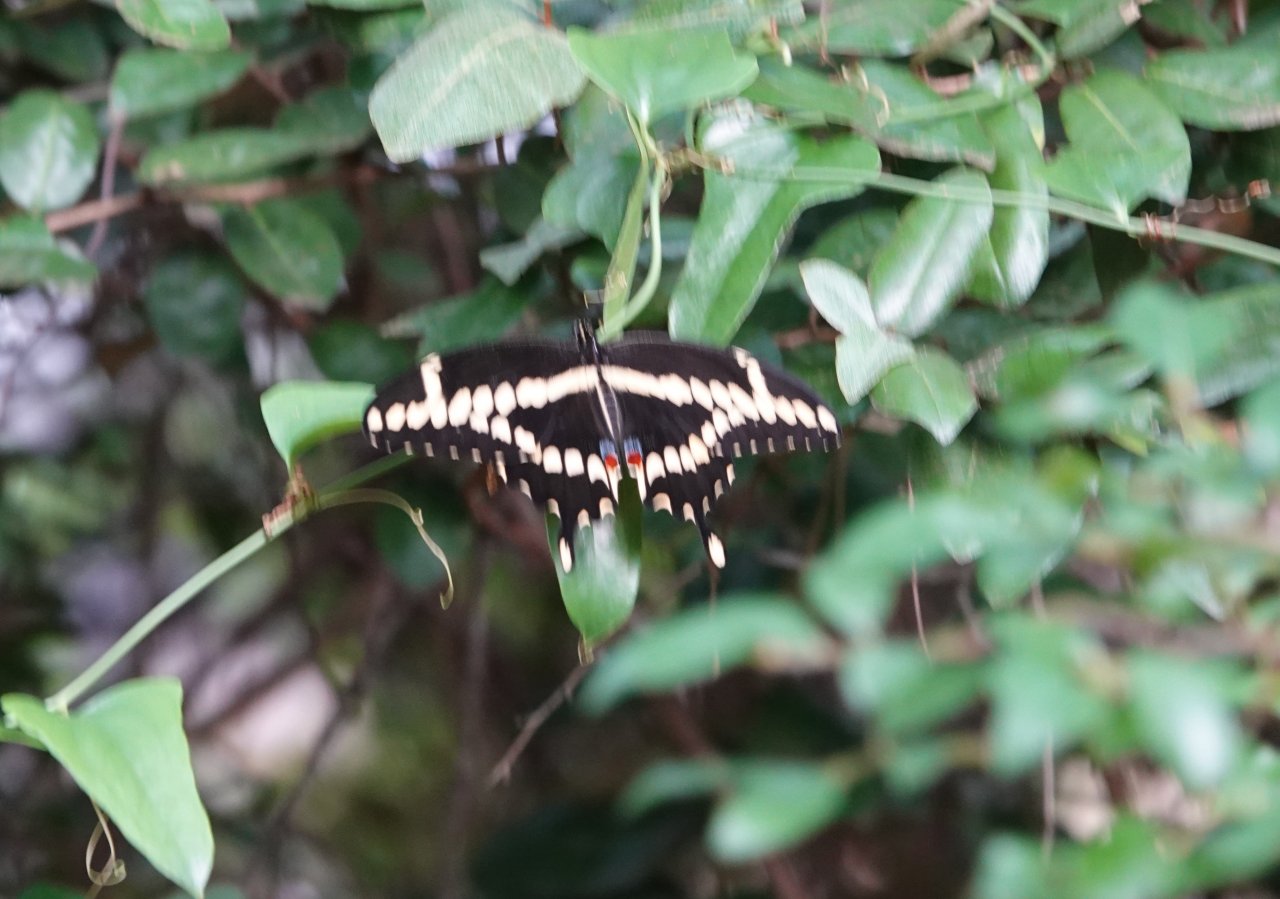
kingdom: Animalia
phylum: Arthropoda
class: Insecta
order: Lepidoptera
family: Papilionidae
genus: Papilio
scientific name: Papilio cresphontes
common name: Eastern Giant Swallowtail
